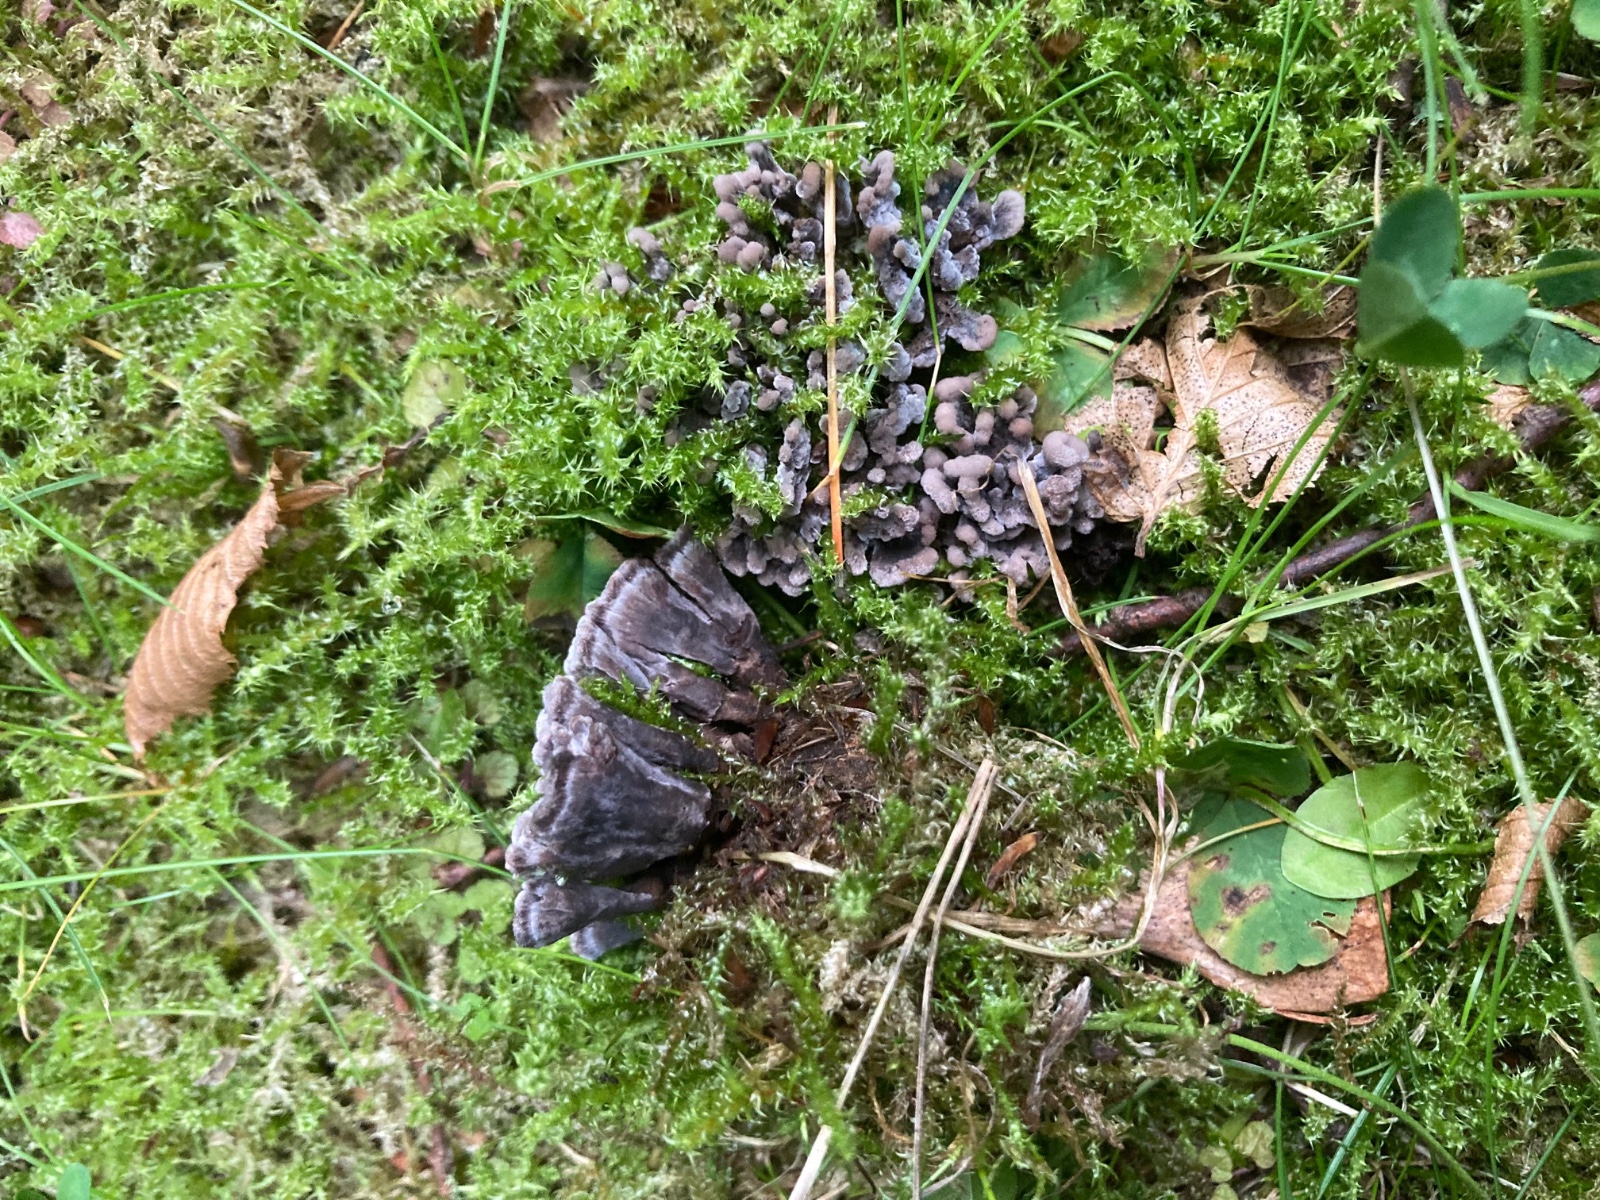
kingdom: Fungi
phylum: Basidiomycota
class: Agaricomycetes
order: Thelephorales
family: Thelephoraceae
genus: Thelephora
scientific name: Thelephora anthocephala
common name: busk-frynsesvamp
